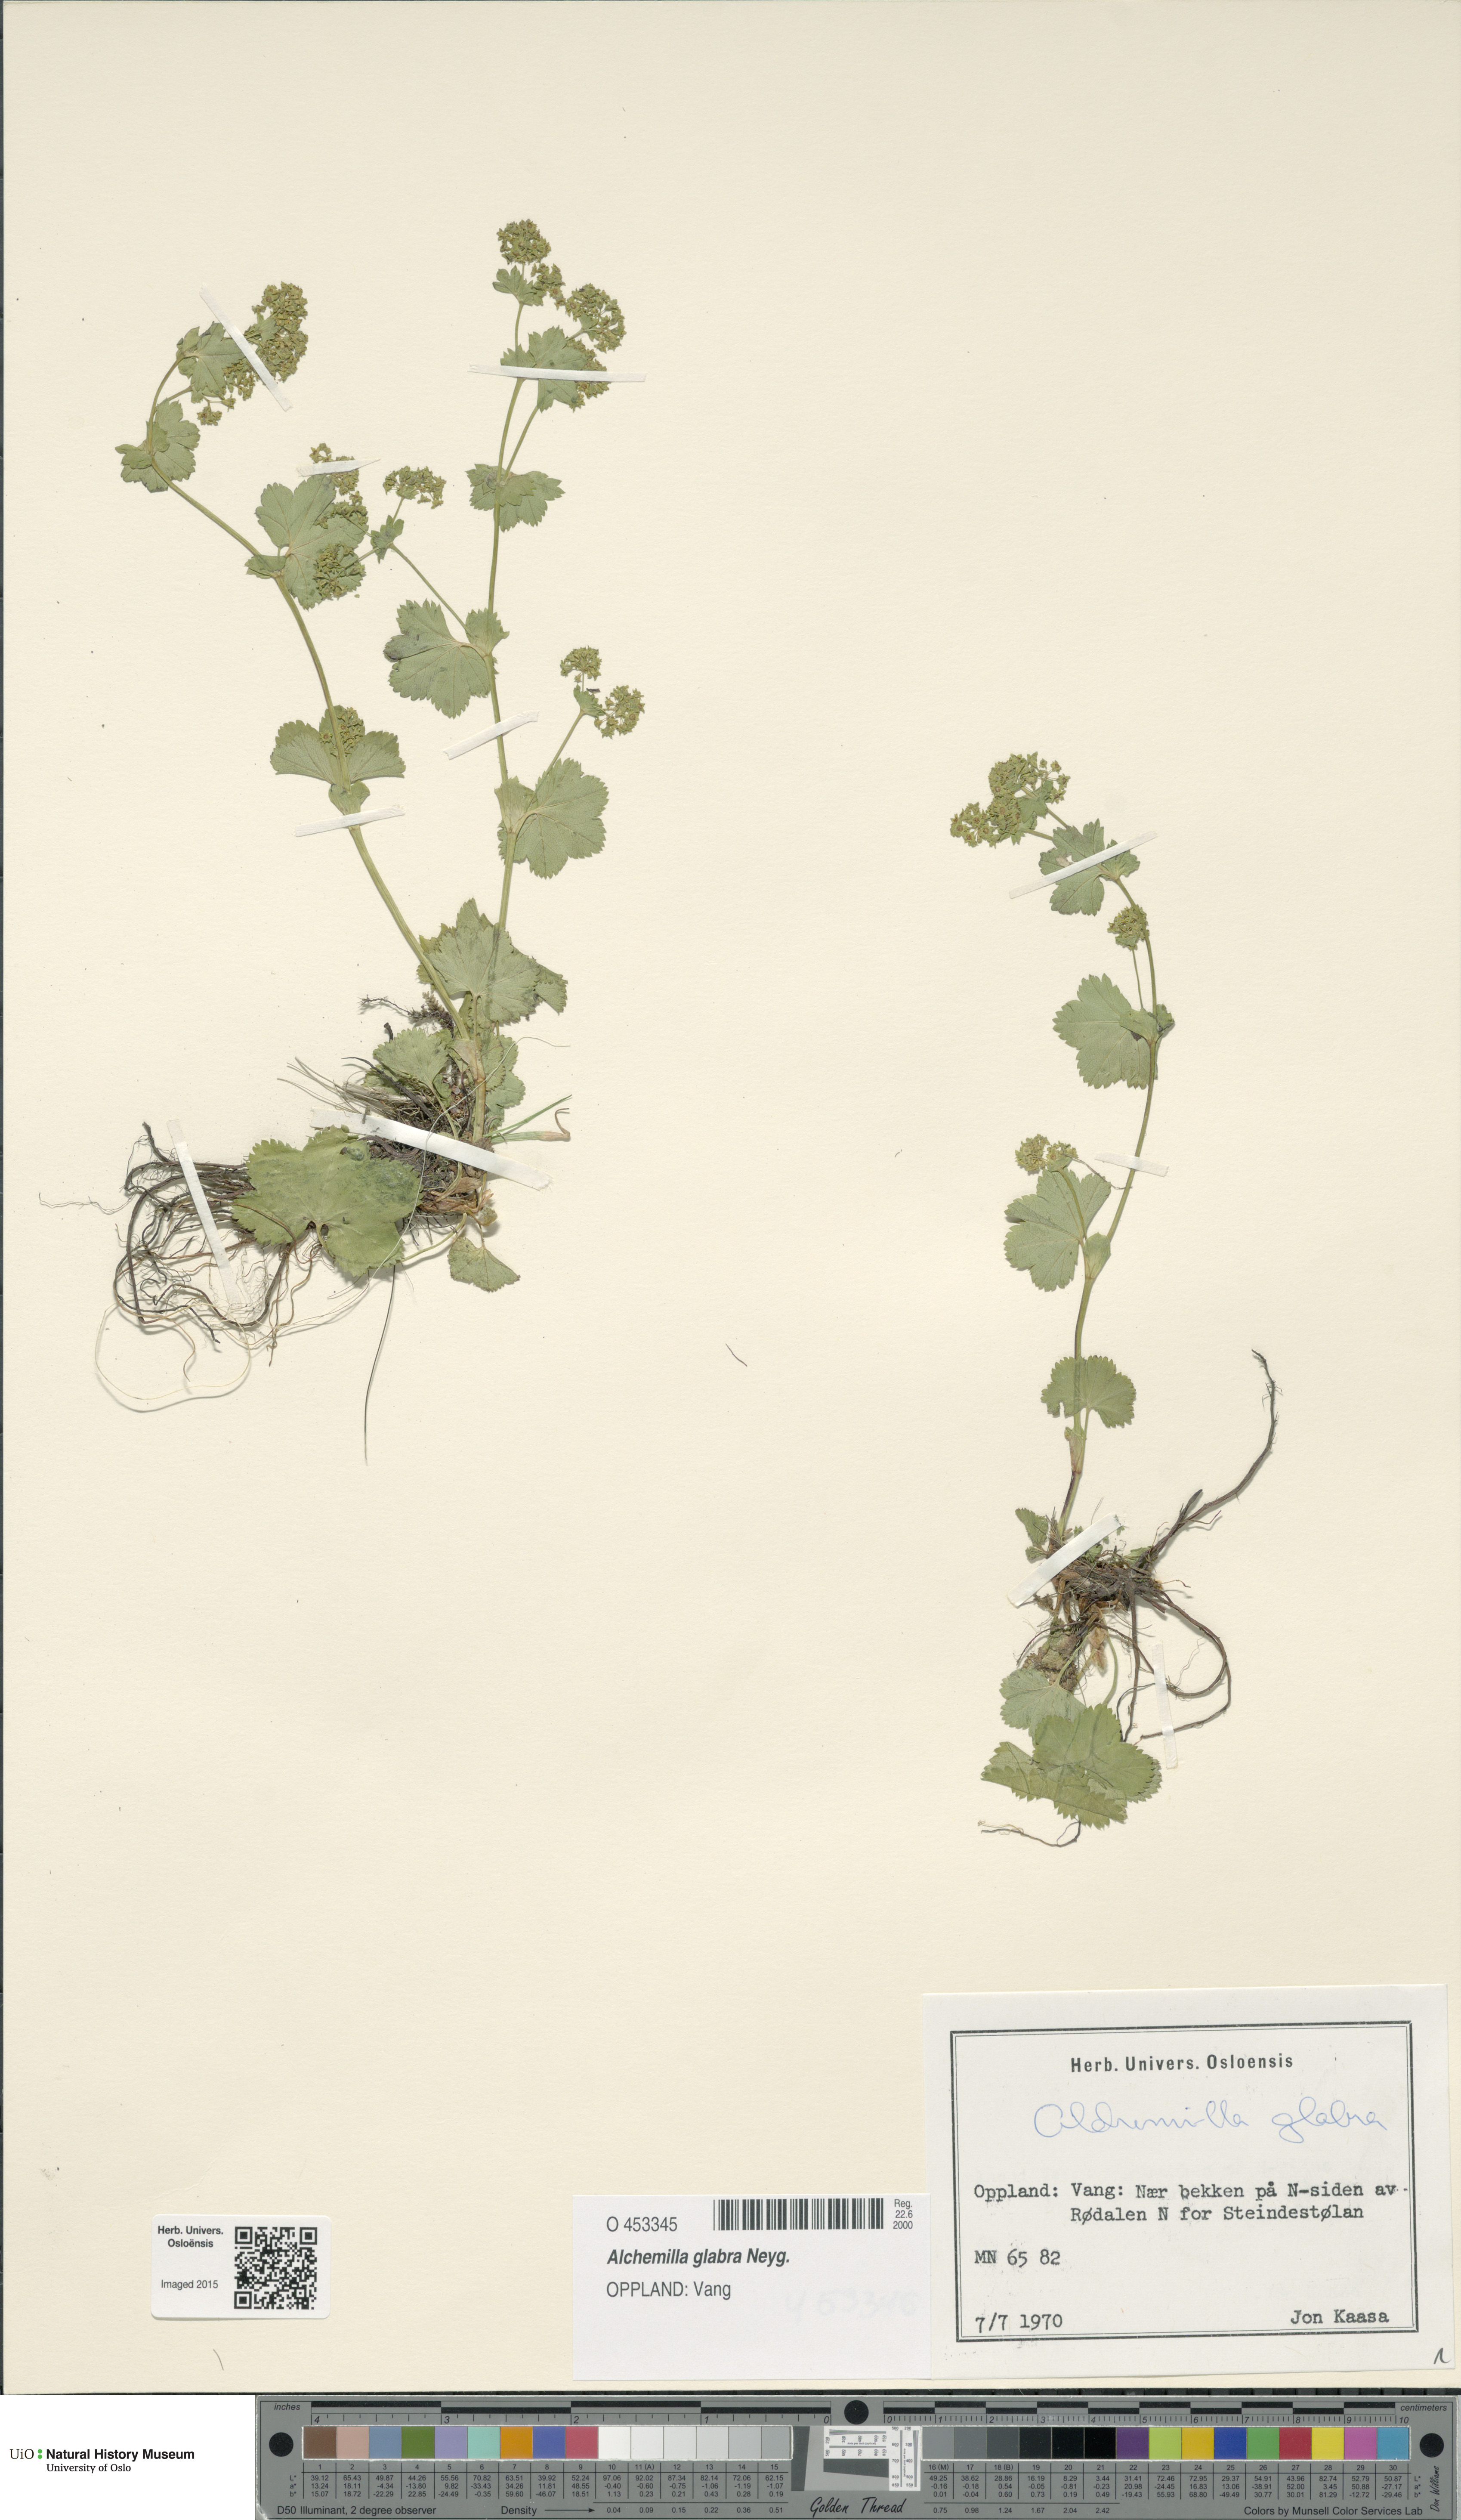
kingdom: Plantae
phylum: Tracheophyta
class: Magnoliopsida
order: Rosales
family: Rosaceae
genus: Alchemilla
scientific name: Alchemilla glabra
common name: Smooth lady's-mantle
